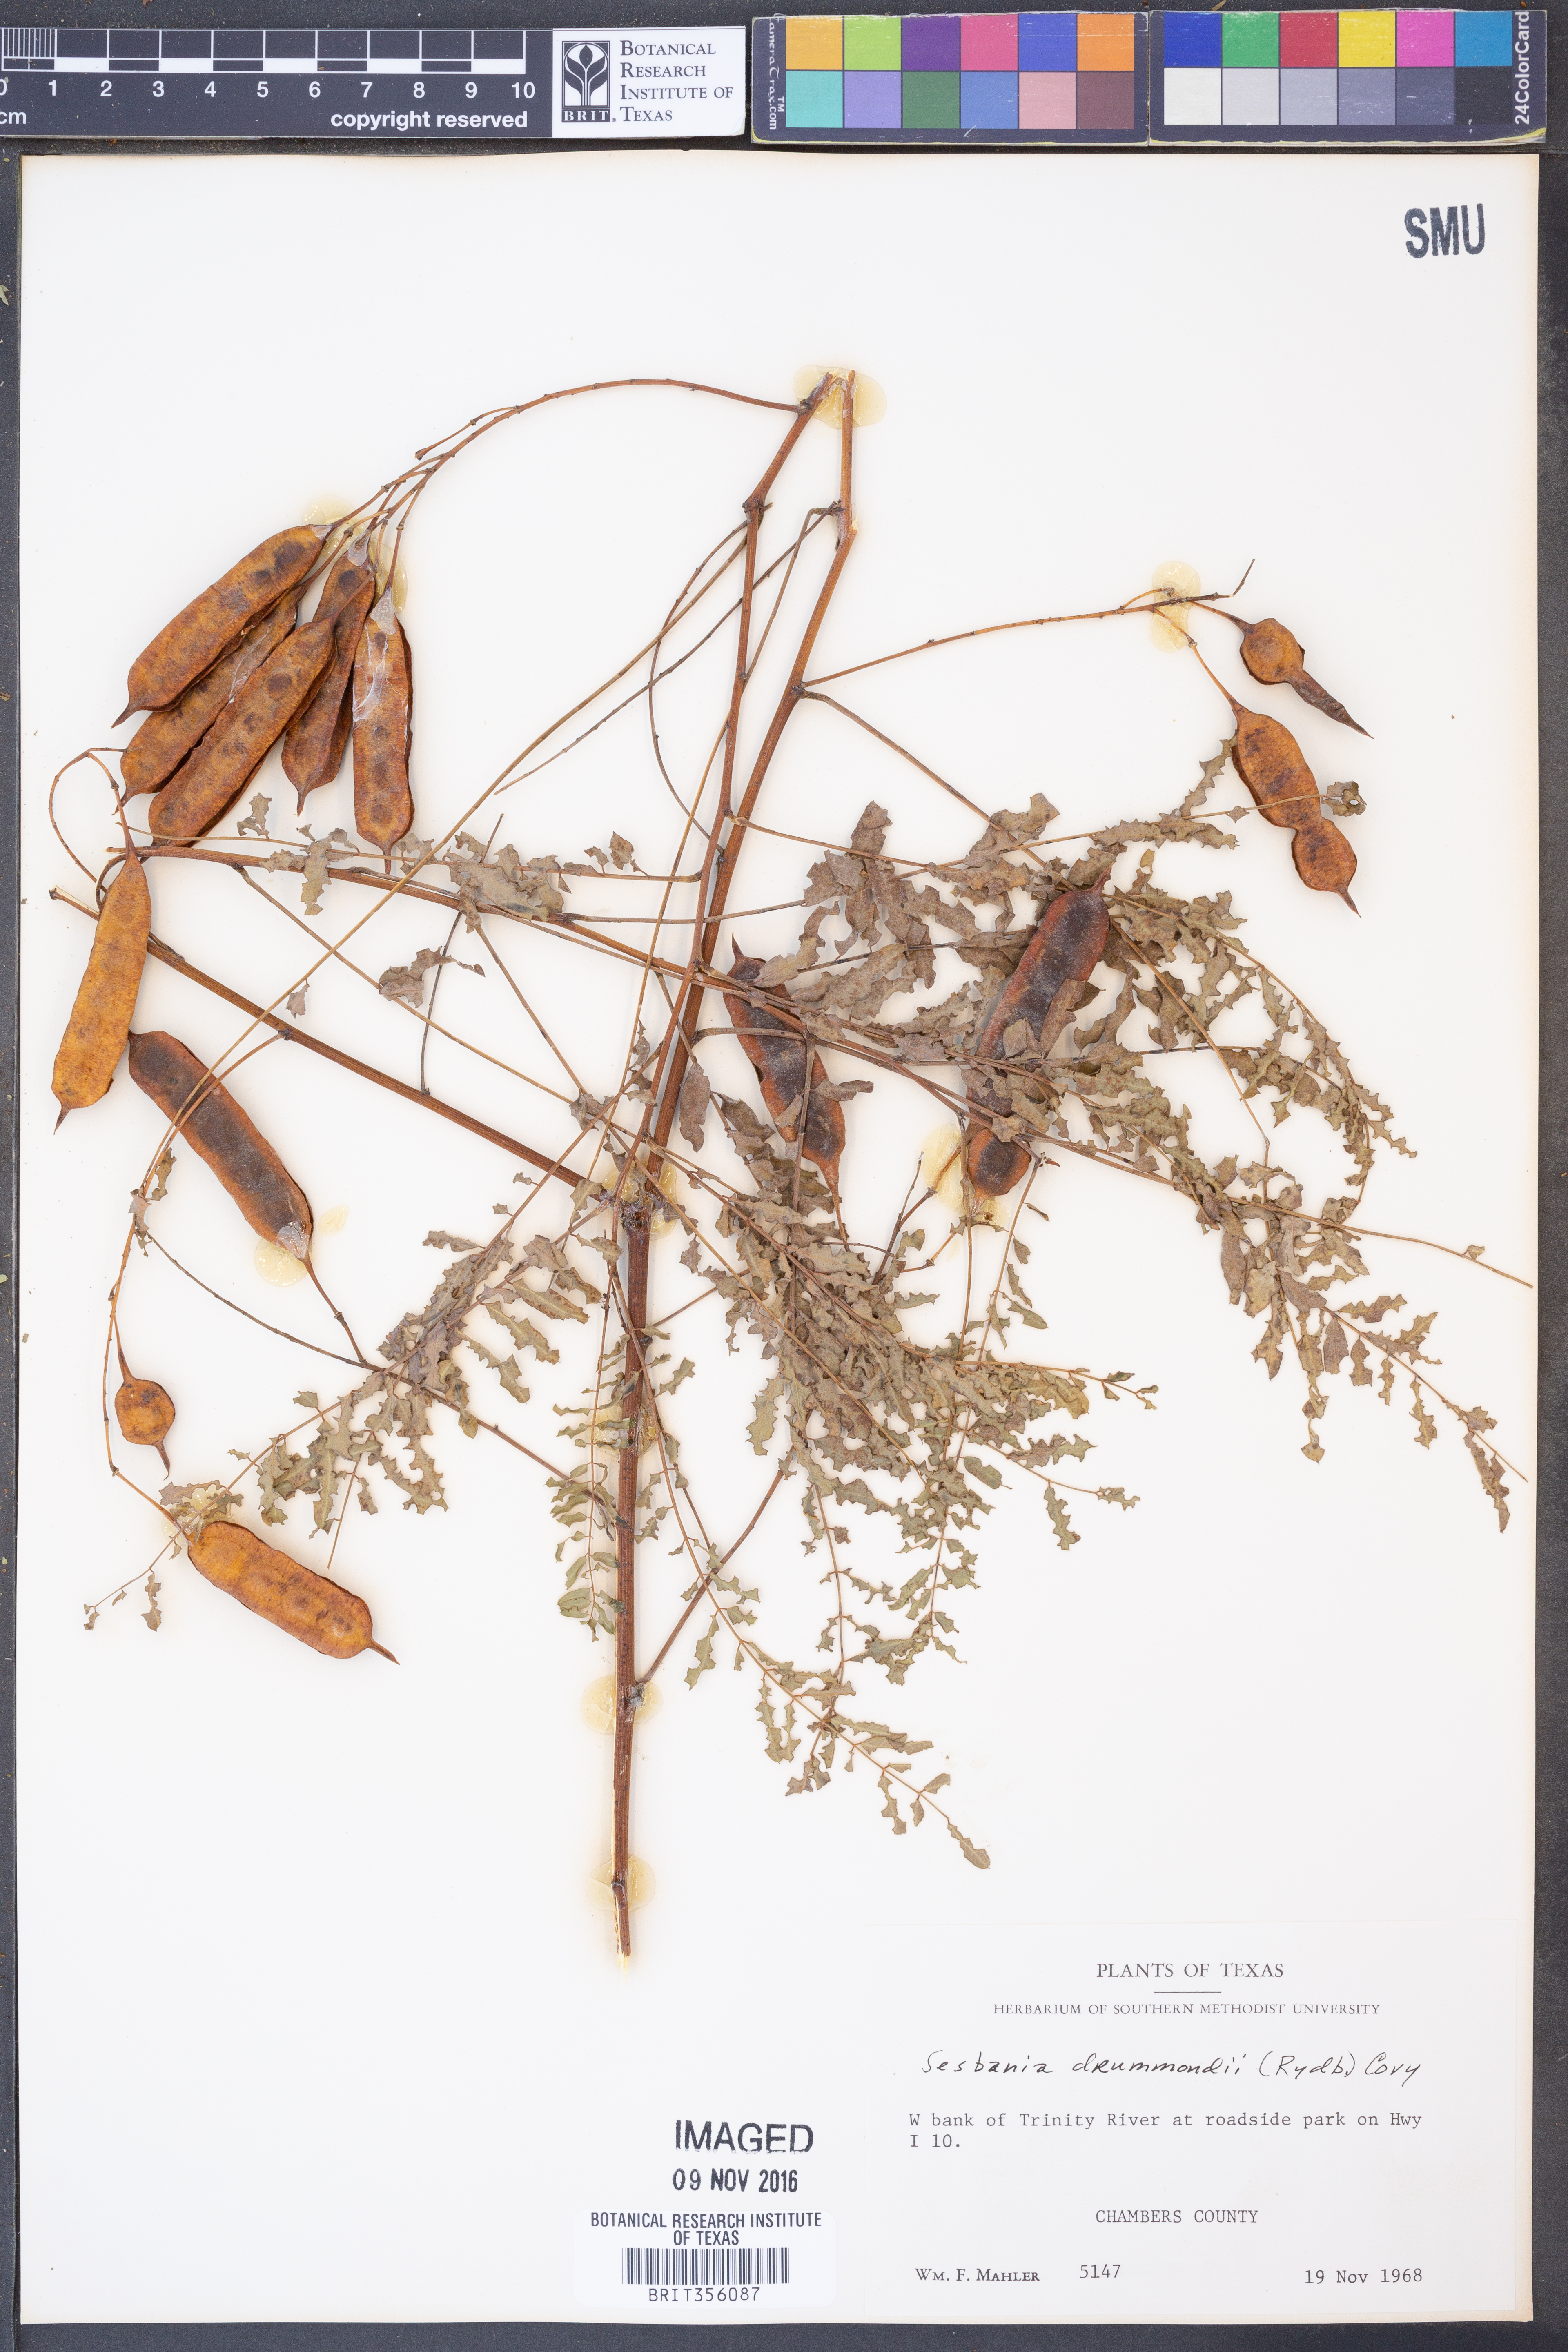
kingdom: Plantae
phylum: Tracheophyta
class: Magnoliopsida
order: Fabales
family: Fabaceae
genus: Sesbania
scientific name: Sesbania drummondii
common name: Poison-bean
